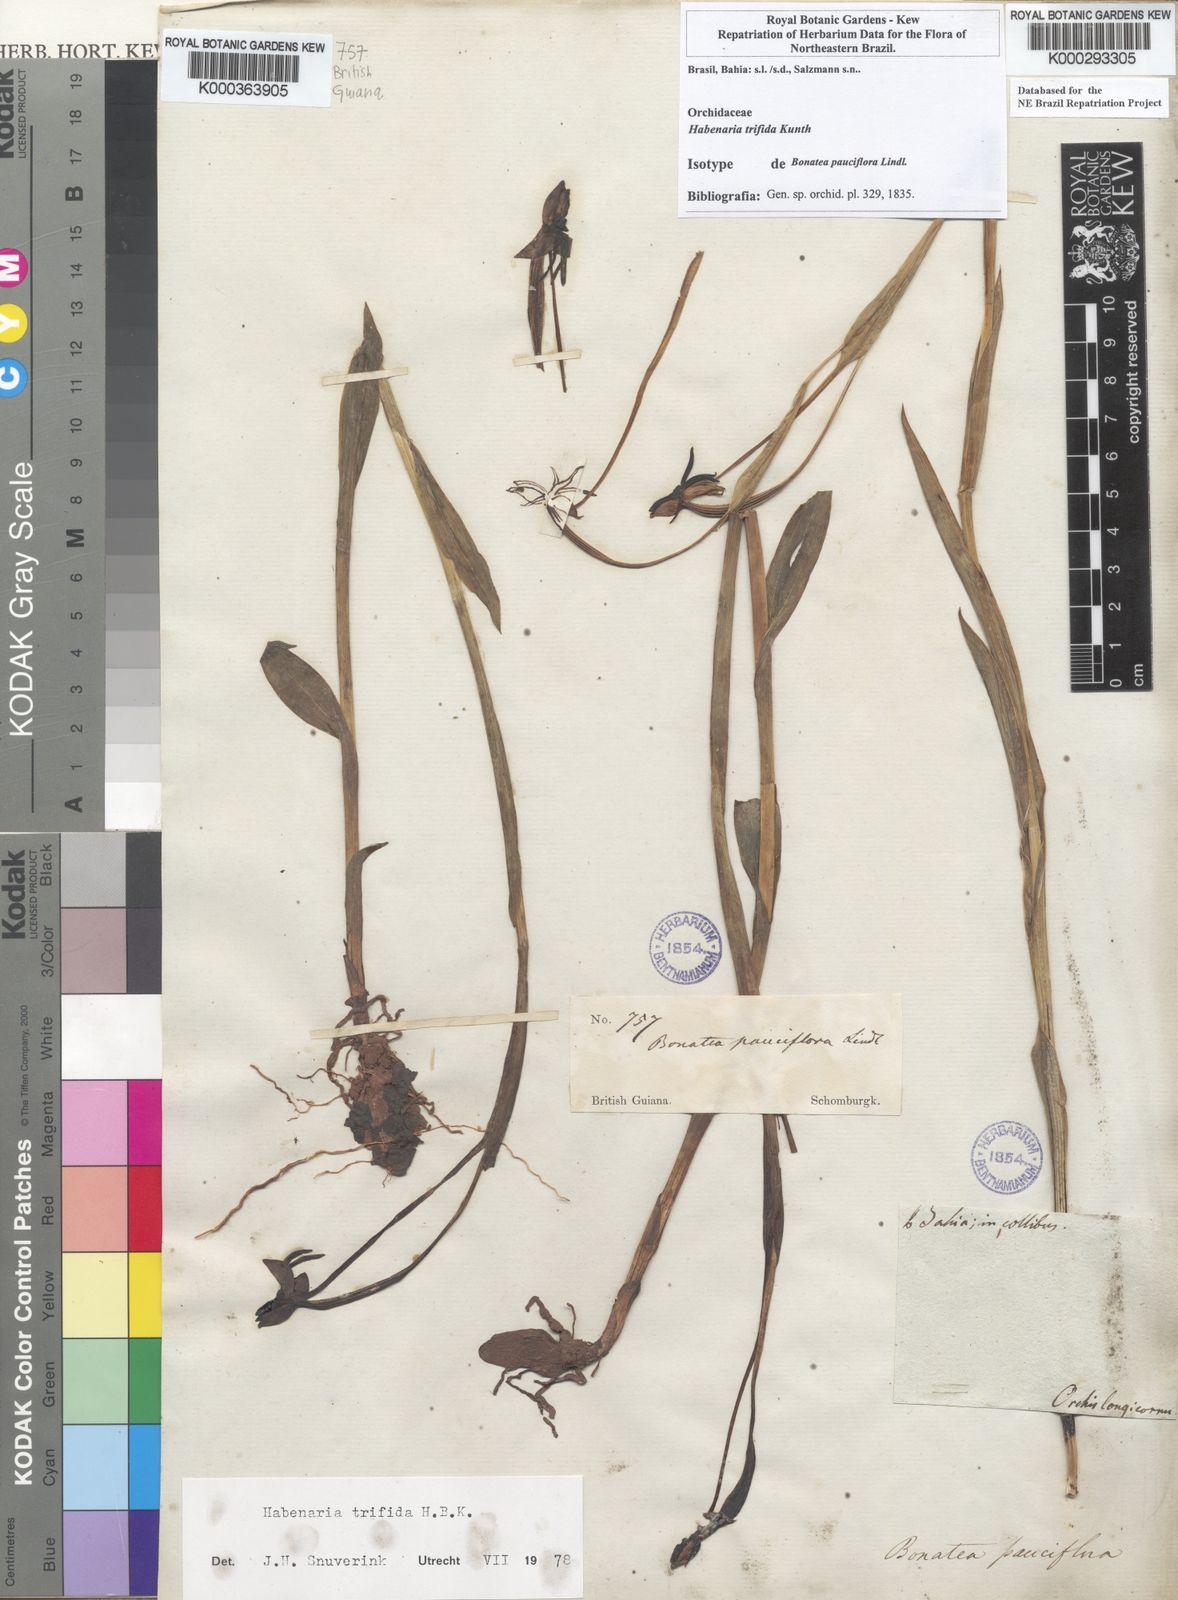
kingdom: Plantae
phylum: Tracheophyta
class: Liliopsida
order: Asparagales
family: Orchidaceae
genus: Habenaria
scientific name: Habenaria trifida
